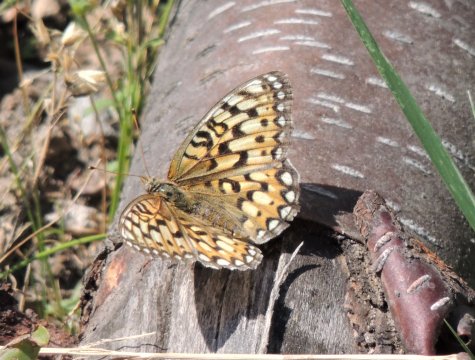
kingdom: Animalia
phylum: Arthropoda
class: Insecta
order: Lepidoptera
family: Nymphalidae
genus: Speyeria
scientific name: Speyeria callippe
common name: Callippe Fritillary
